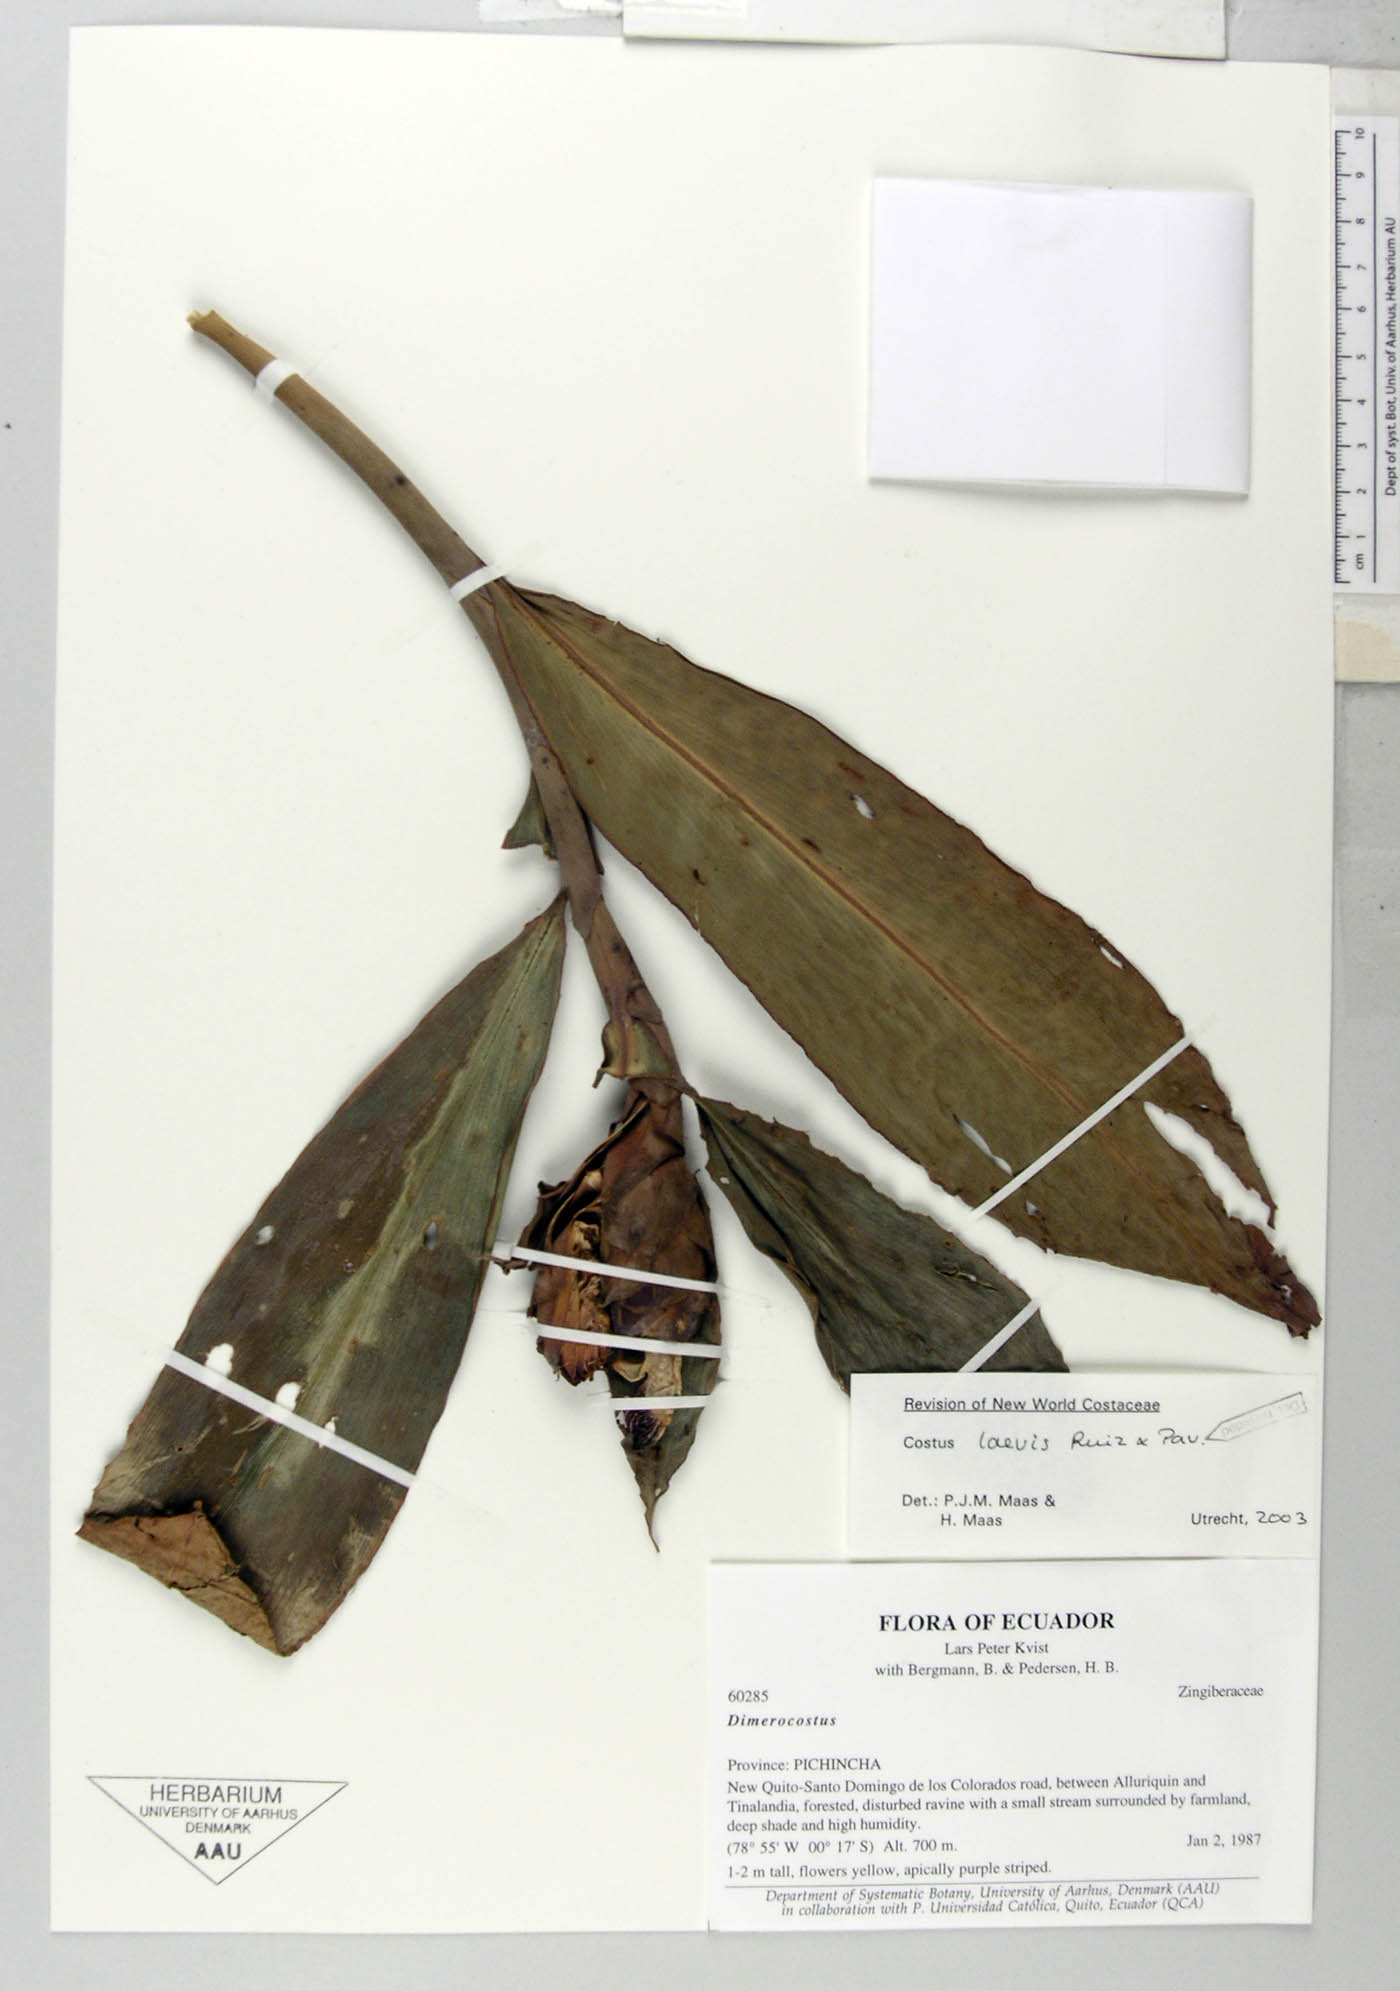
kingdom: Plantae
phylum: Tracheophyta
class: Liliopsida
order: Zingiberales
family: Costaceae
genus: Costus
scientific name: Costus laevis
